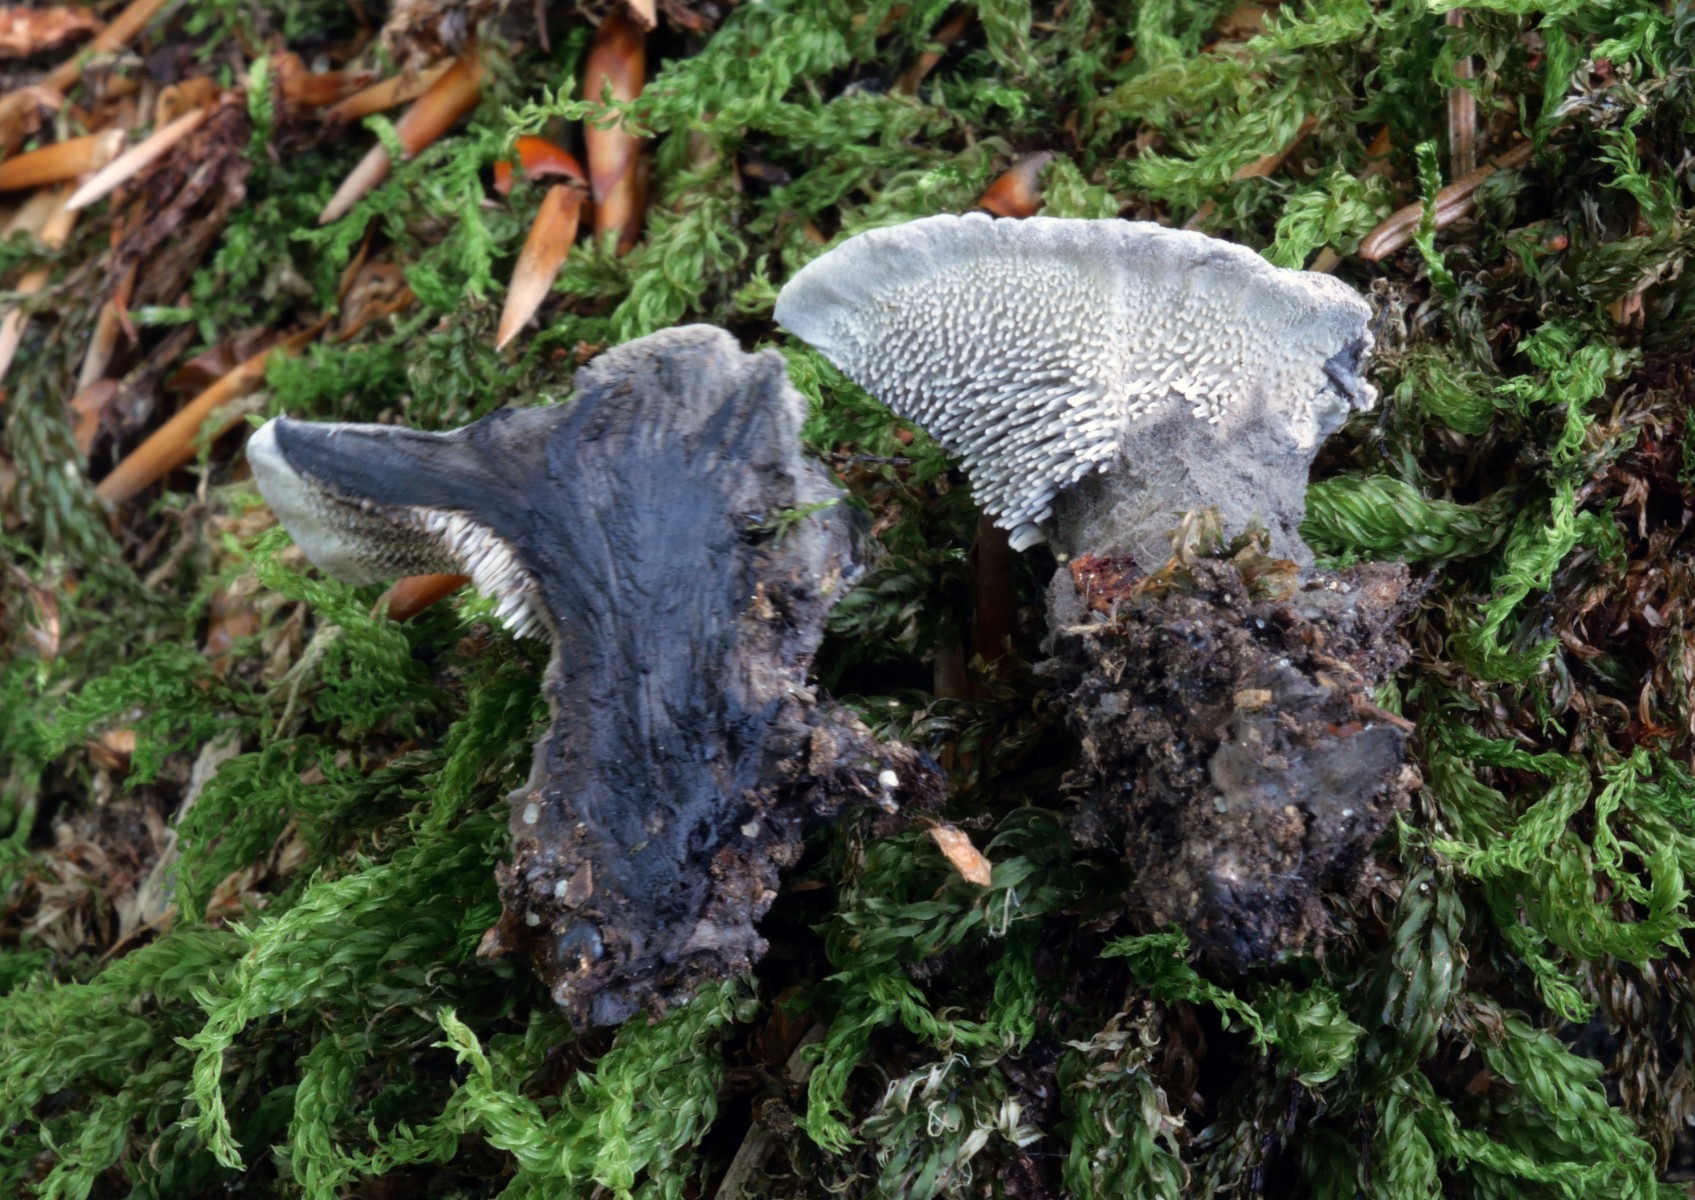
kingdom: Fungi
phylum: Basidiomycota
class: Agaricomycetes
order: Thelephorales
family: Thelephoraceae
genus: Phellodon
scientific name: Phellodon niger
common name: Black tooth
